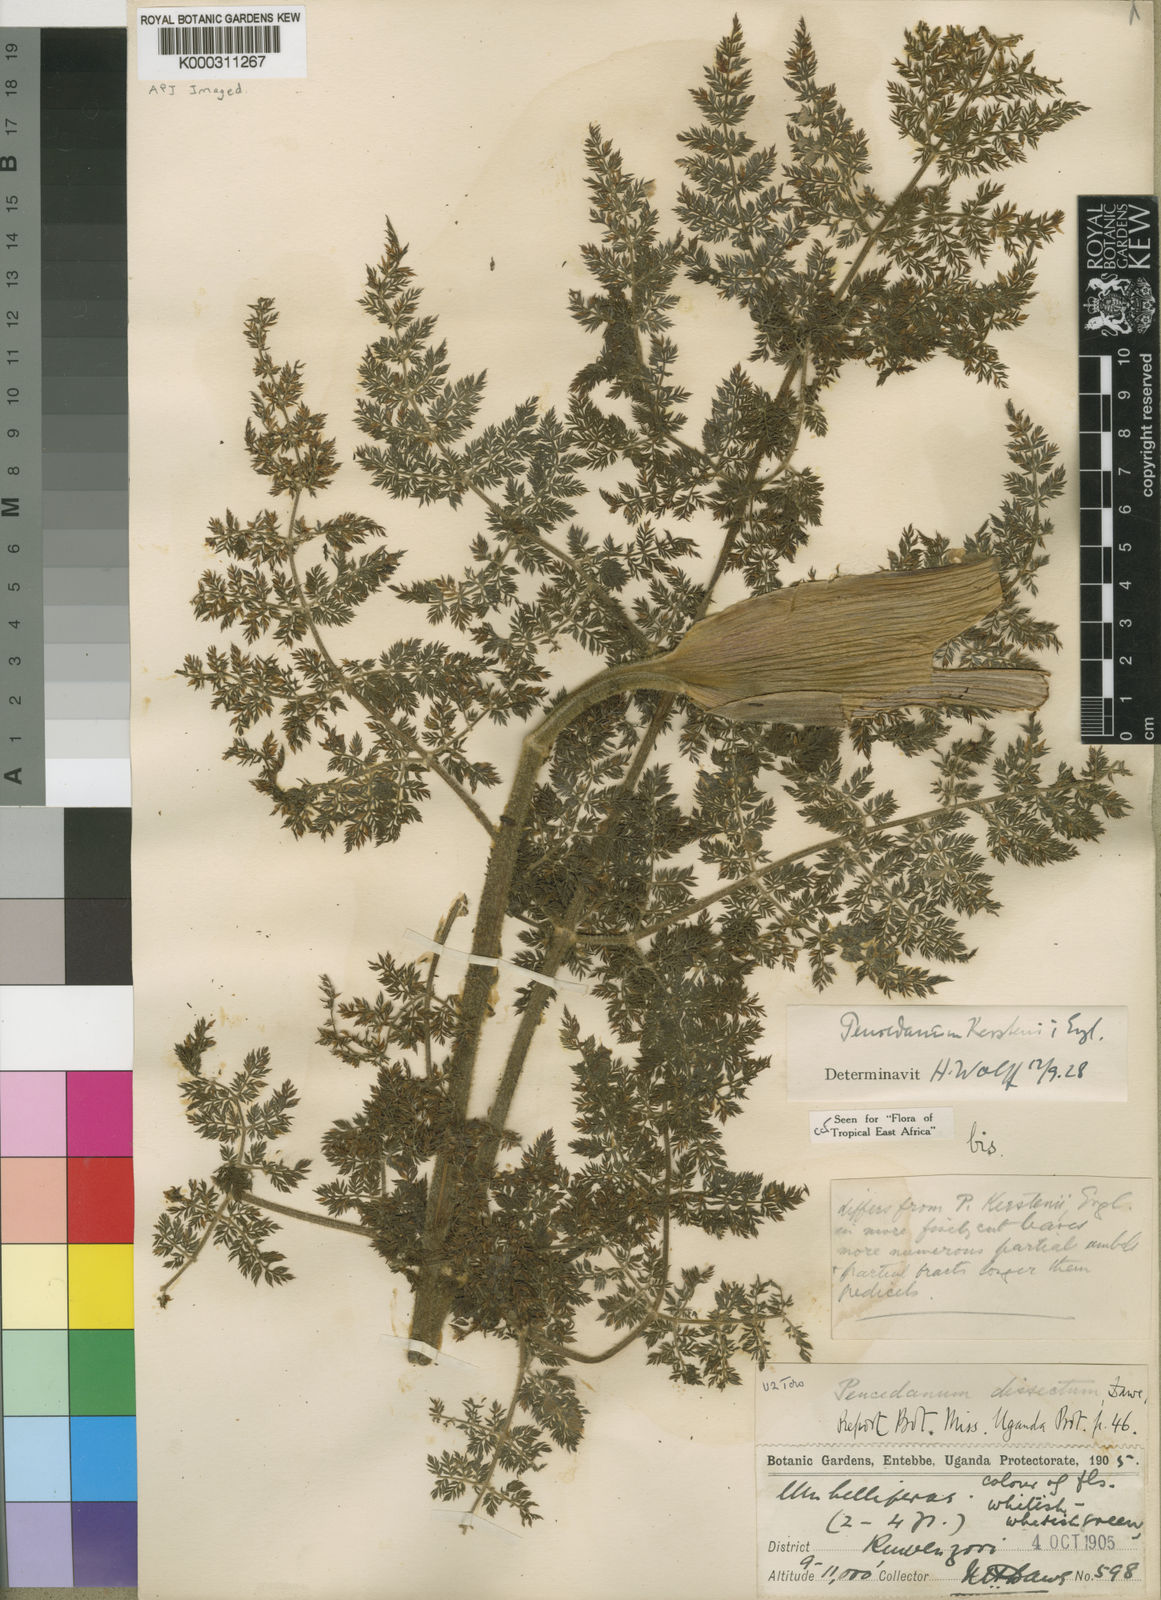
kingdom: Plantae
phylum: Tracheophyta
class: Magnoliopsida
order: Apiales
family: Apiaceae
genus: Afrosciadium
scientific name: Afrosciadium kerstenii
